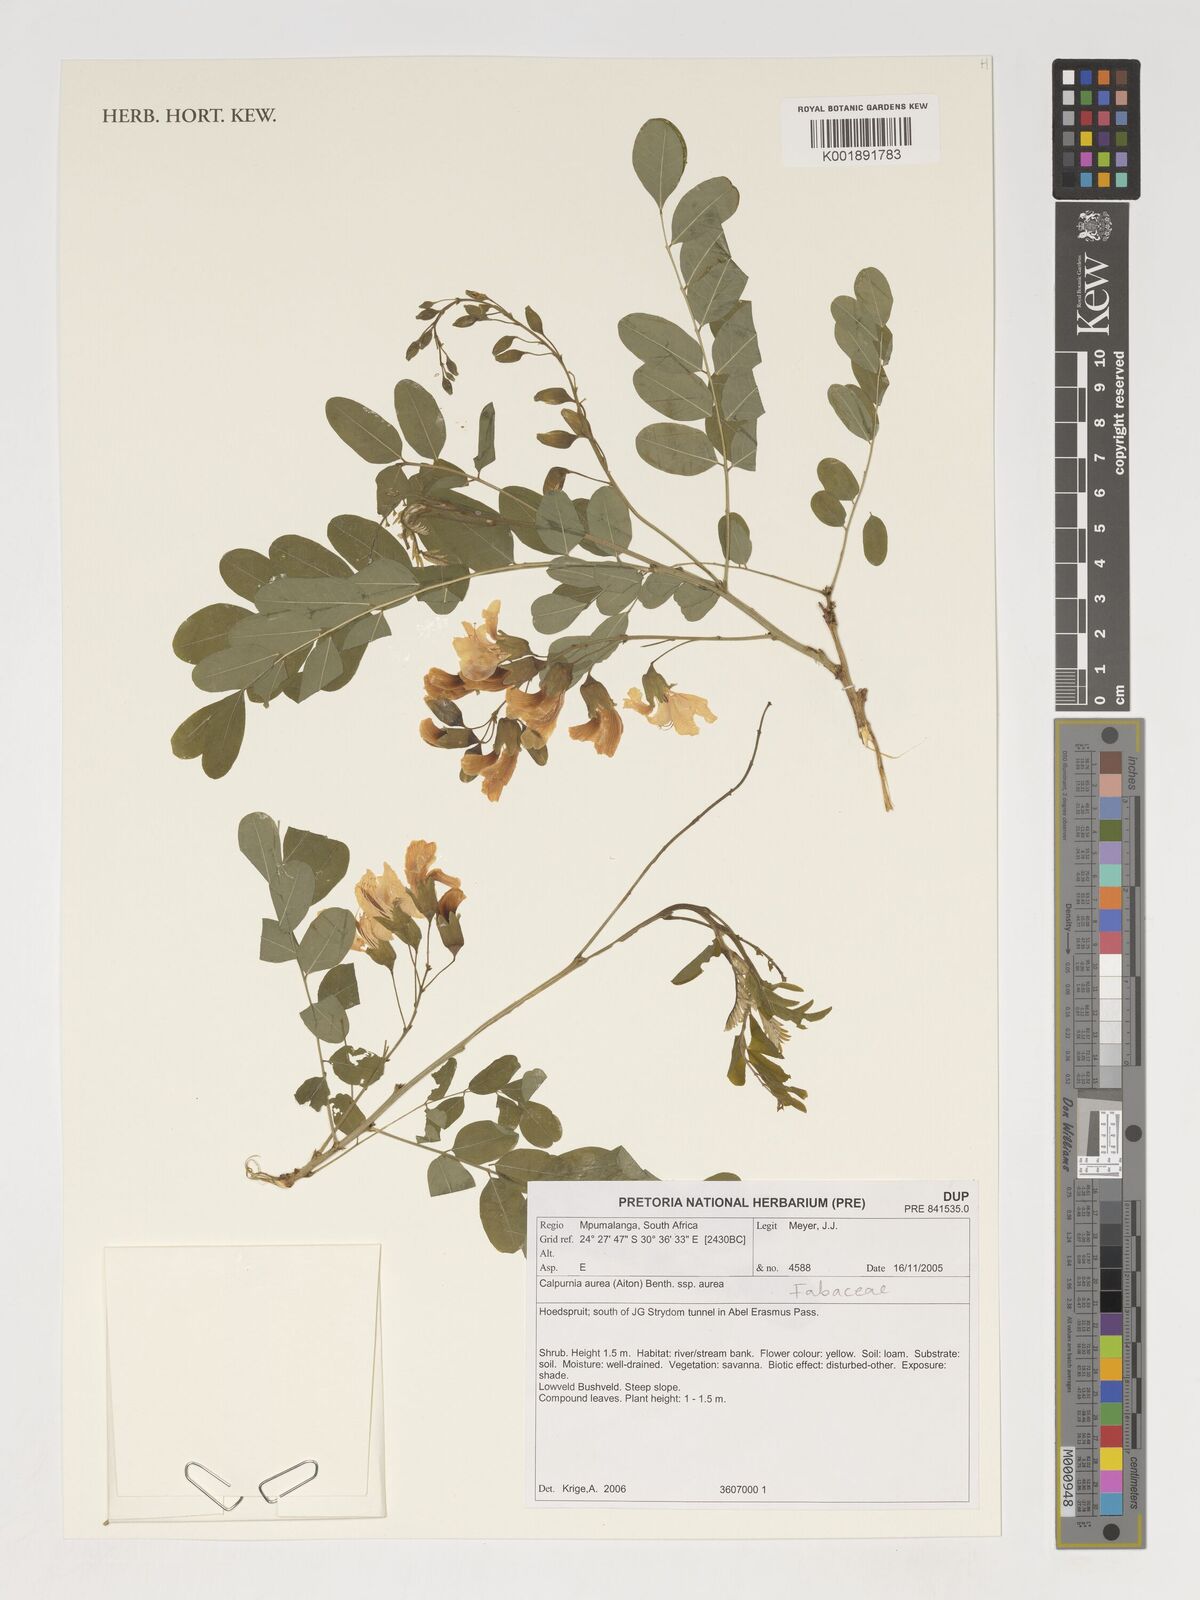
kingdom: Plantae
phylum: Tracheophyta
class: Magnoliopsida
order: Fabales
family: Fabaceae
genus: Calpurnia
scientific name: Calpurnia aurea
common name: Wild laburnum
